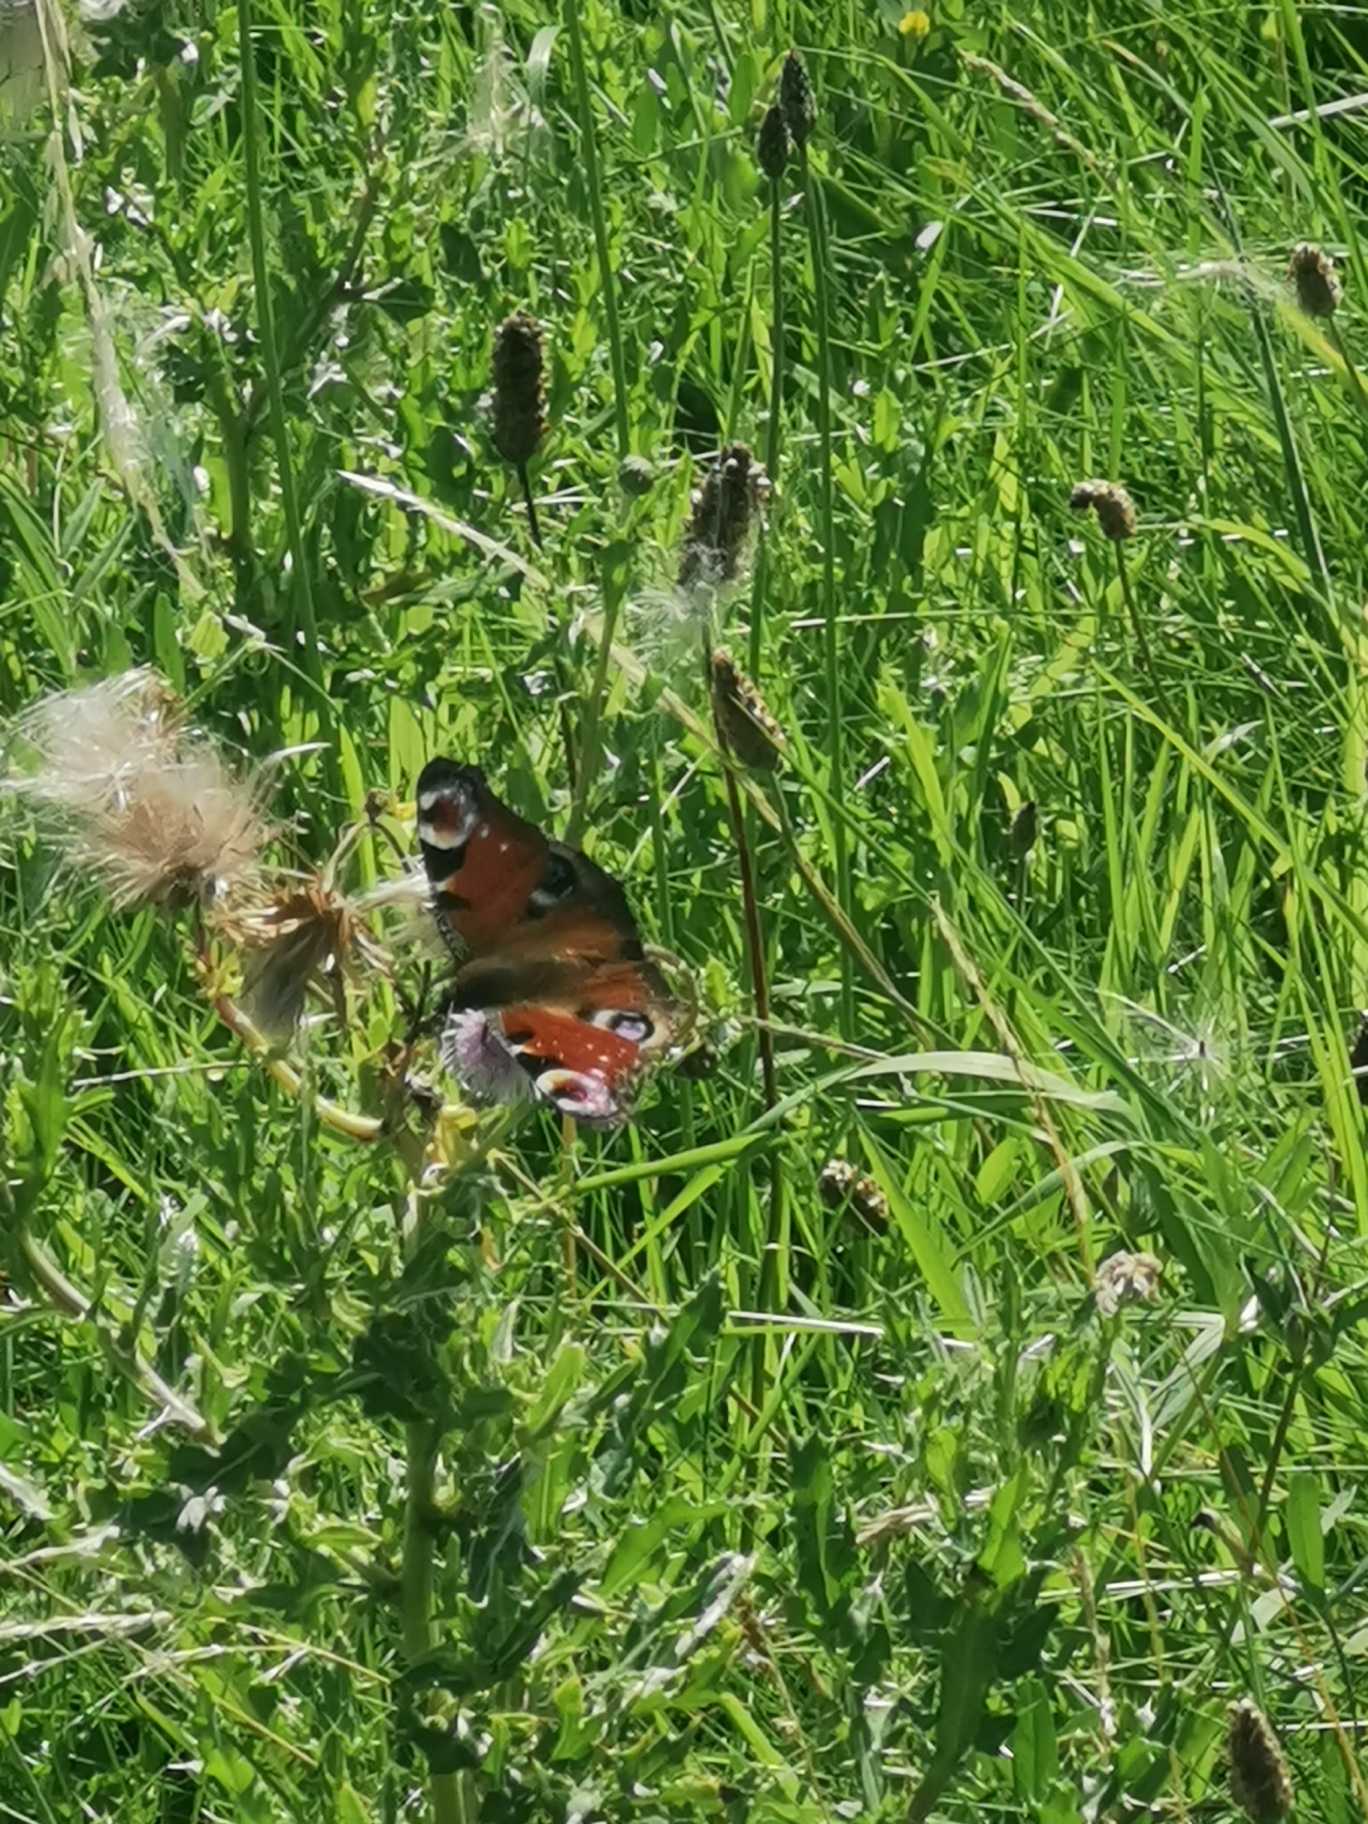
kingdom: Animalia
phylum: Arthropoda
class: Insecta
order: Lepidoptera
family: Nymphalidae
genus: Aglais
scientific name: Aglais io
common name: Dagpåfugleøje
